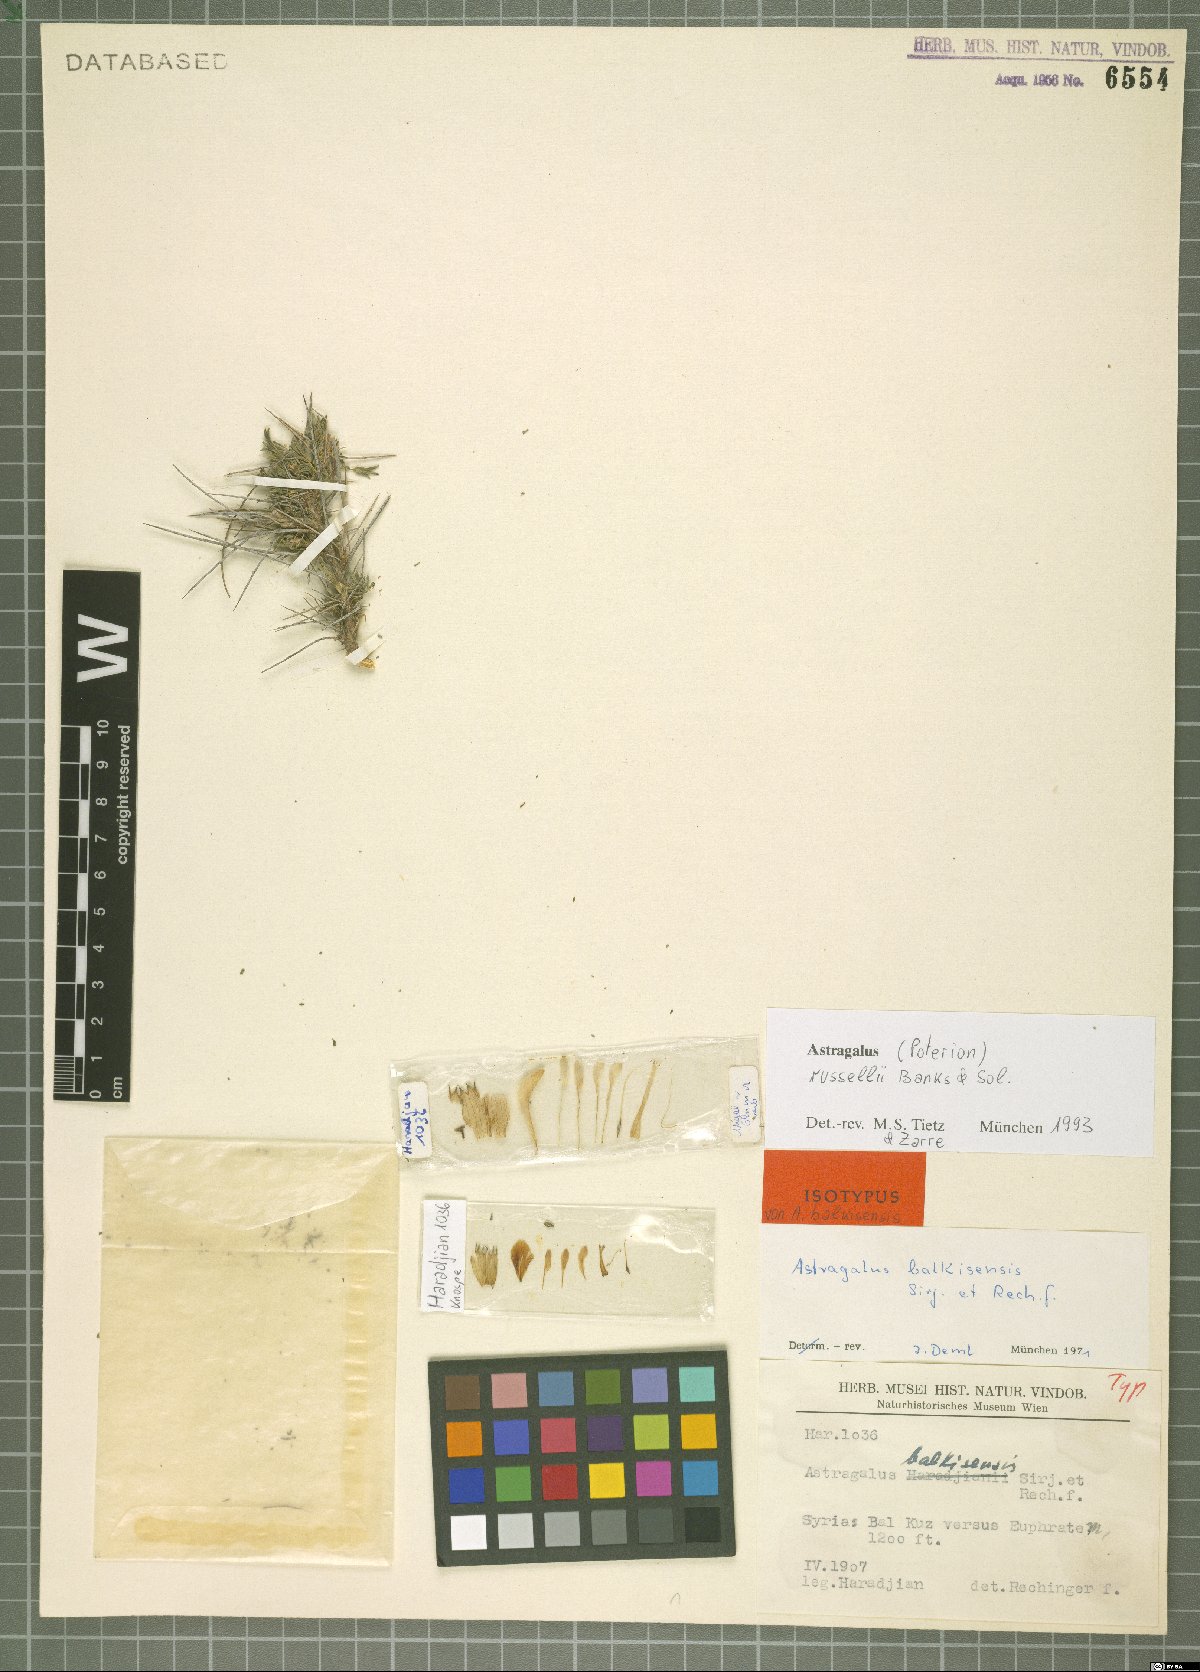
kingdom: Plantae
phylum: Tracheophyta
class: Magnoliopsida
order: Fabales
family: Fabaceae
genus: Astragalus
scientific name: Astragalus russellii
